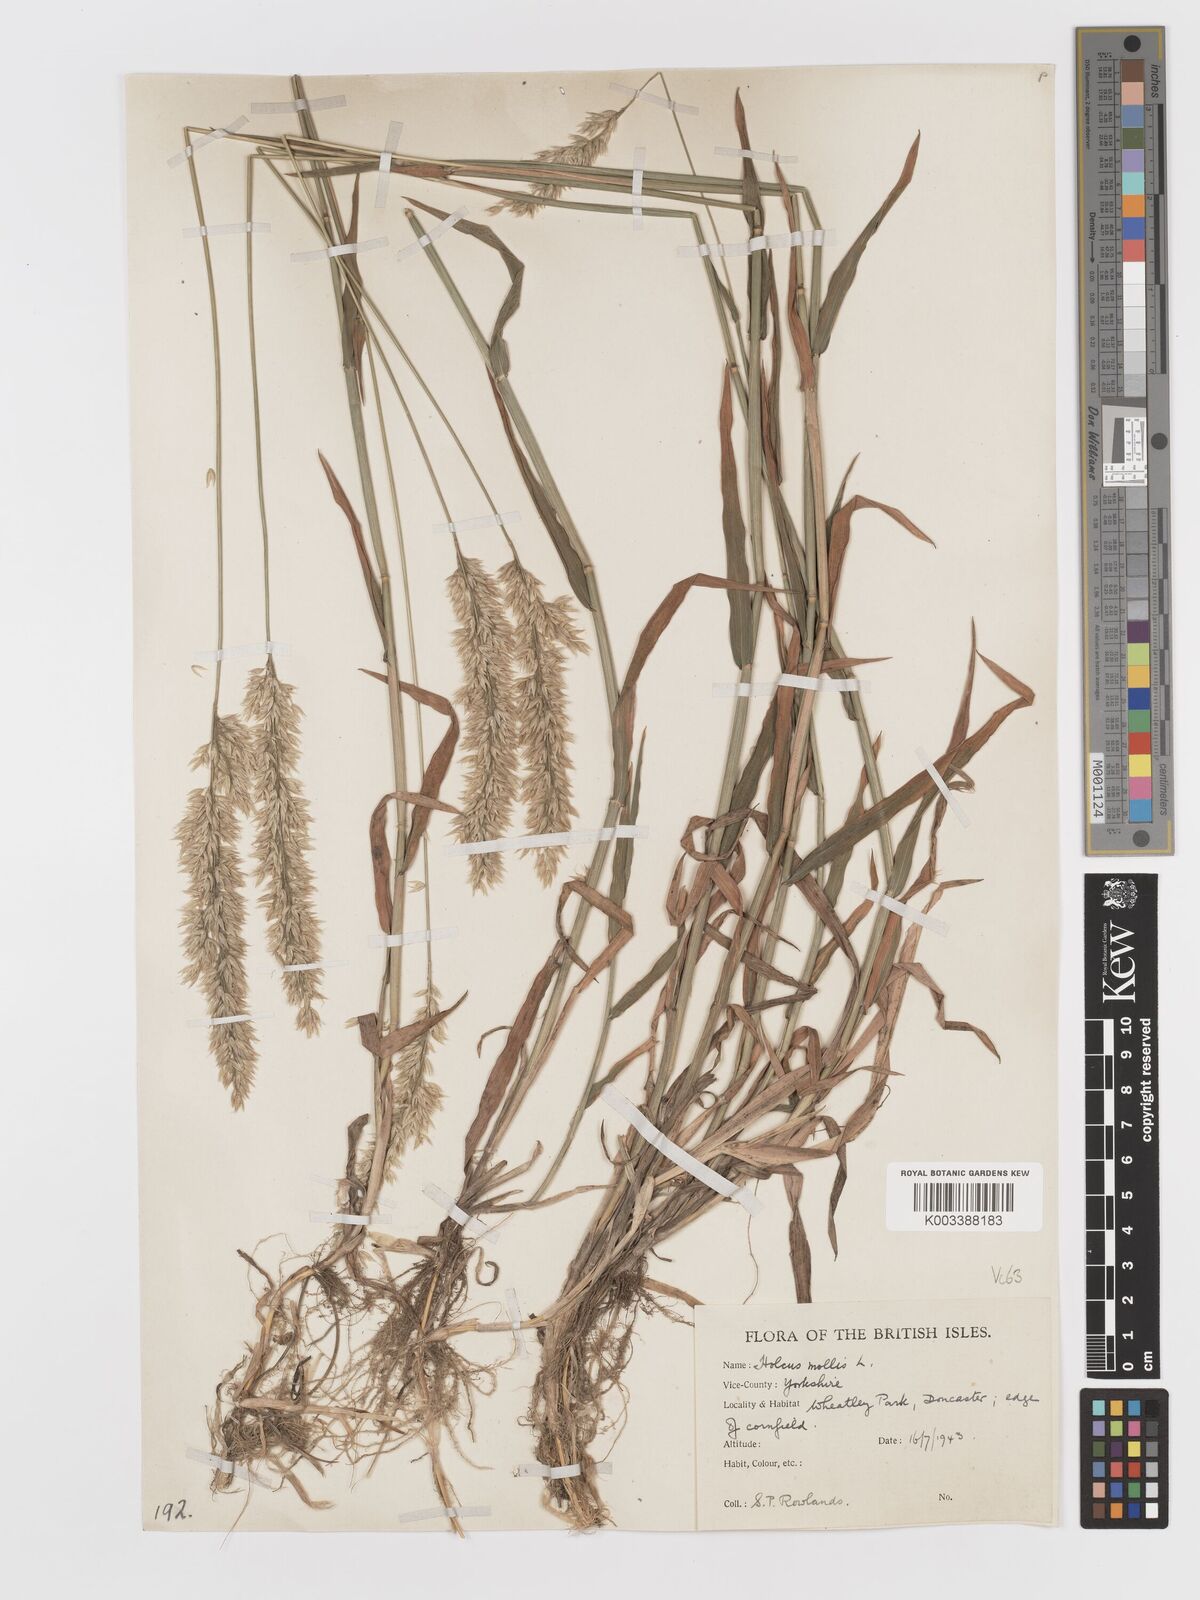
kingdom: Plantae
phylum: Tracheophyta
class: Liliopsida
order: Poales
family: Poaceae
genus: Holcus
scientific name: Holcus mollis
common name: Creeping velvetgrass
